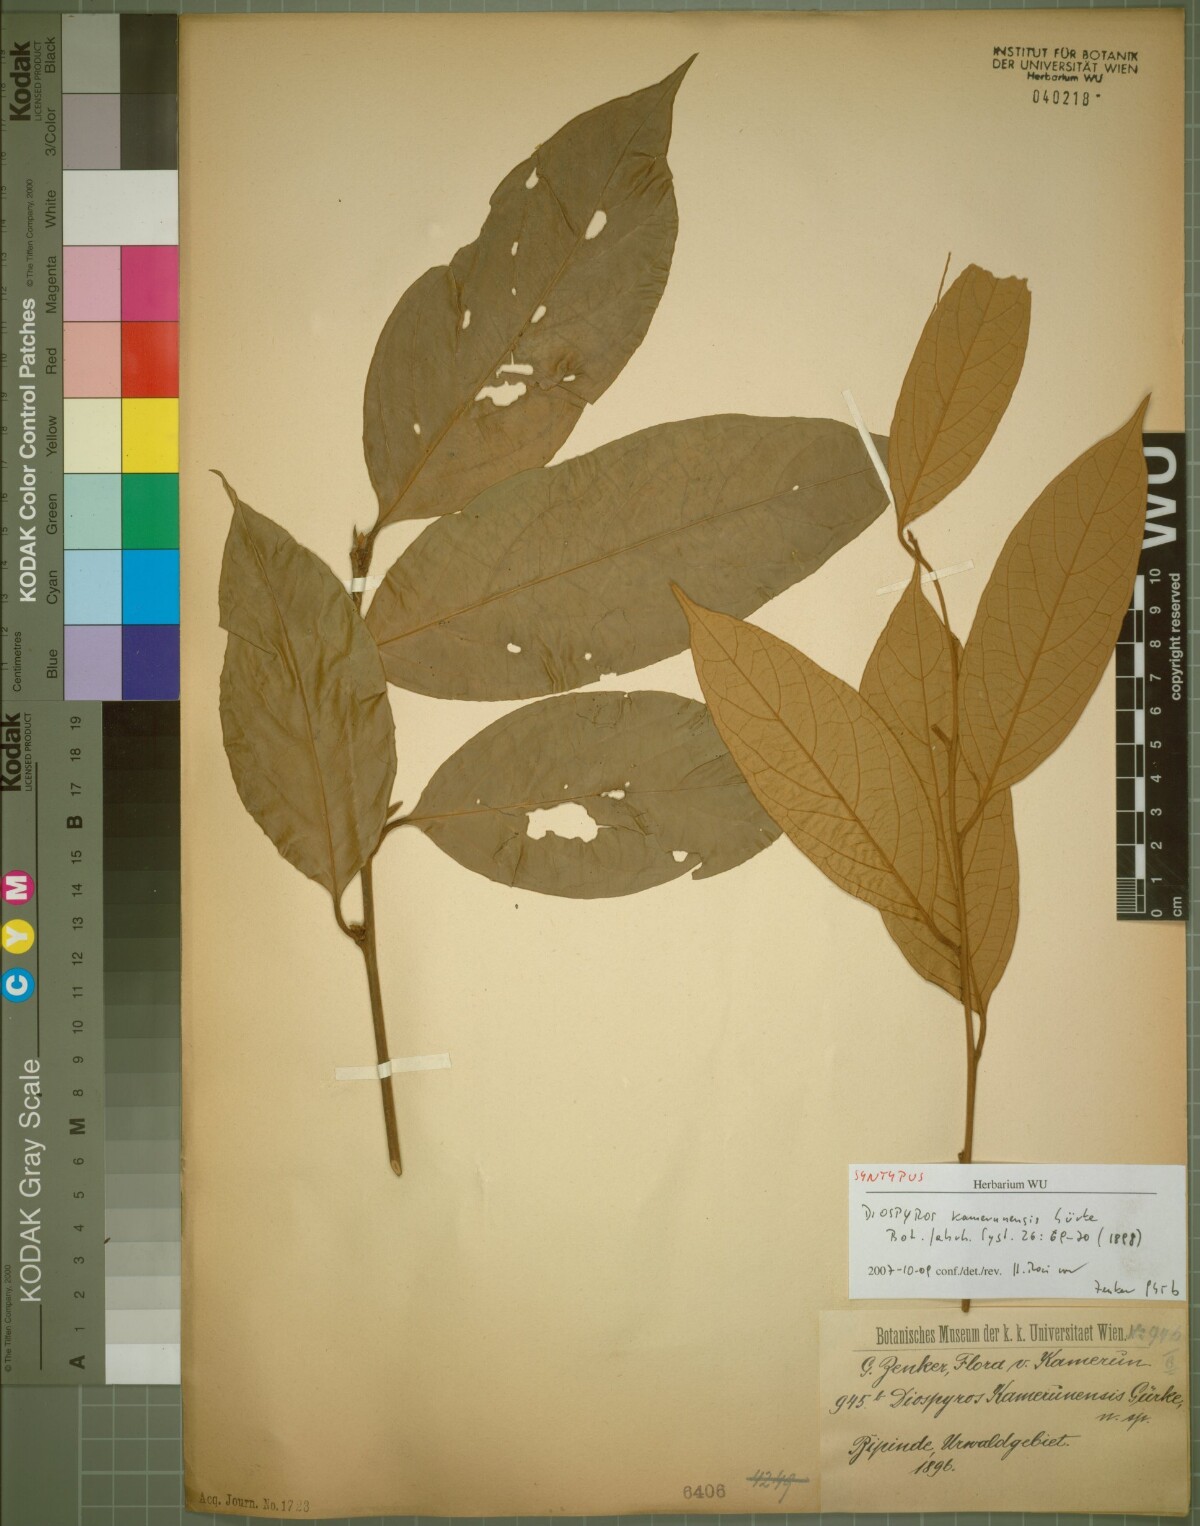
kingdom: Plantae
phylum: Tracheophyta
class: Magnoliopsida
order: Ericales
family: Ebenaceae
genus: Diospyros
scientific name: Diospyros kamerunensis
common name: African ebony
